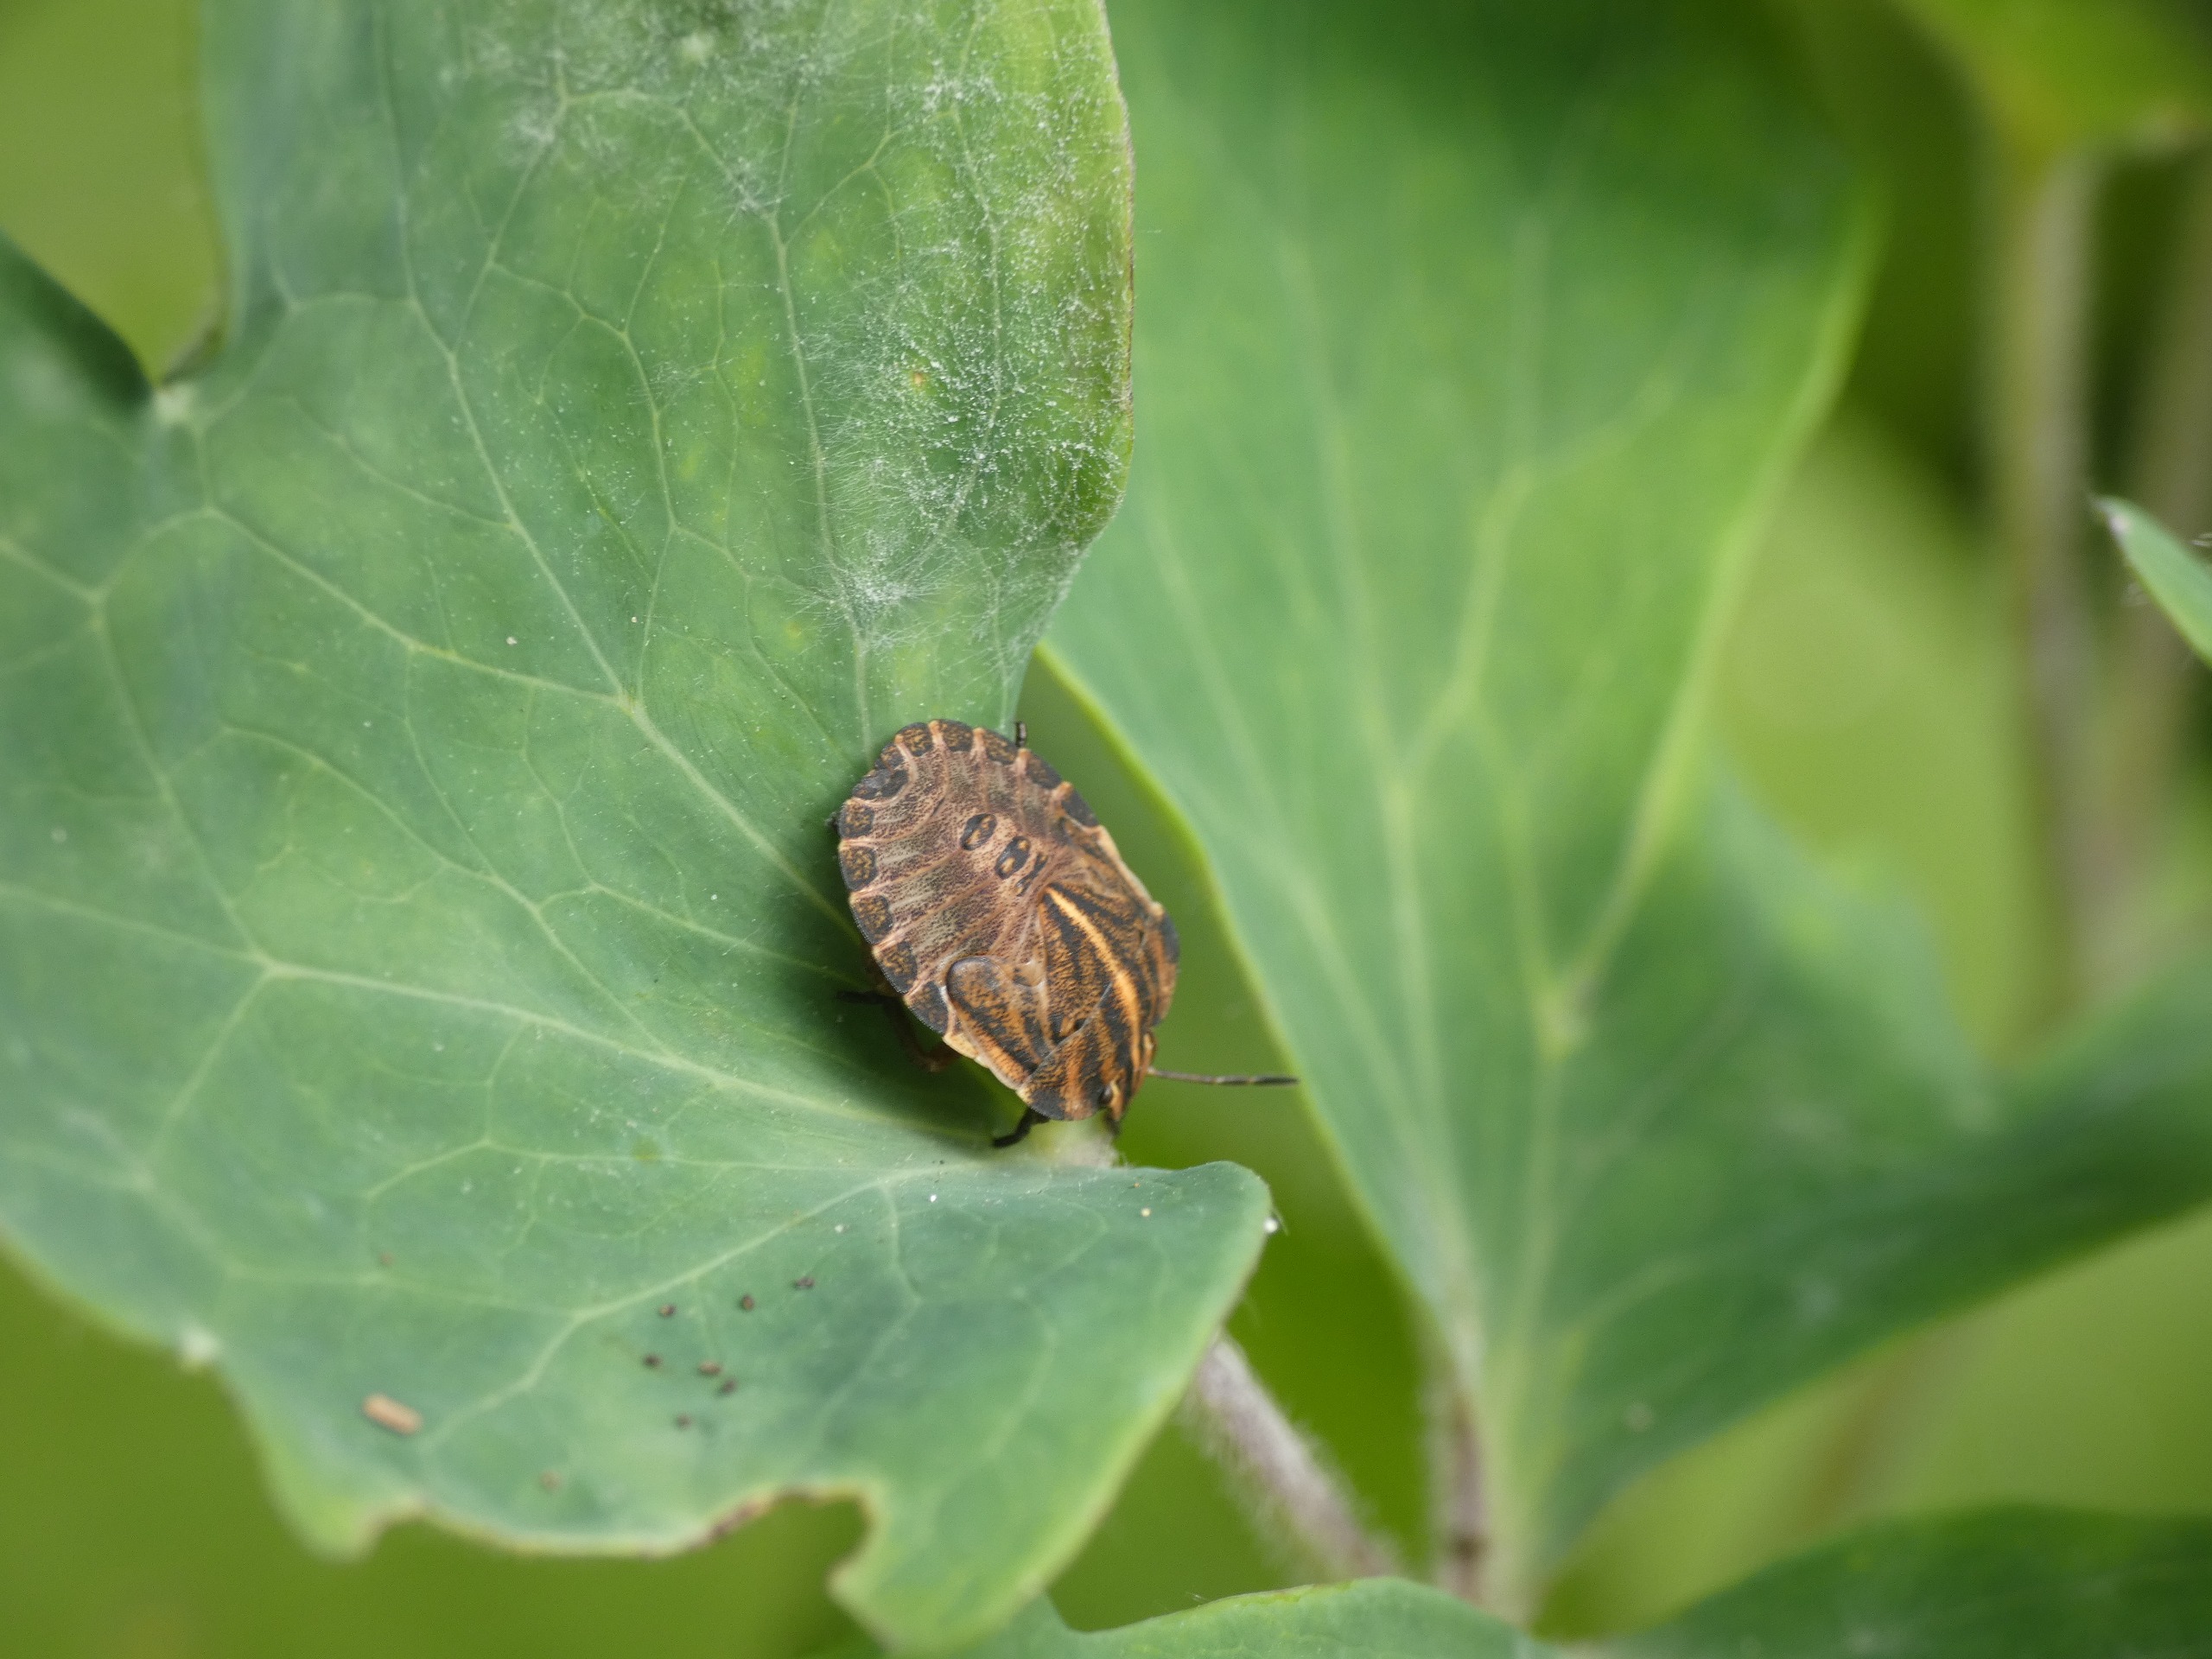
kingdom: Animalia
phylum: Arthropoda
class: Insecta
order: Hemiptera
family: Pentatomidae
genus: Graphosoma
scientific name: Graphosoma italicum
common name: Stribetæge
